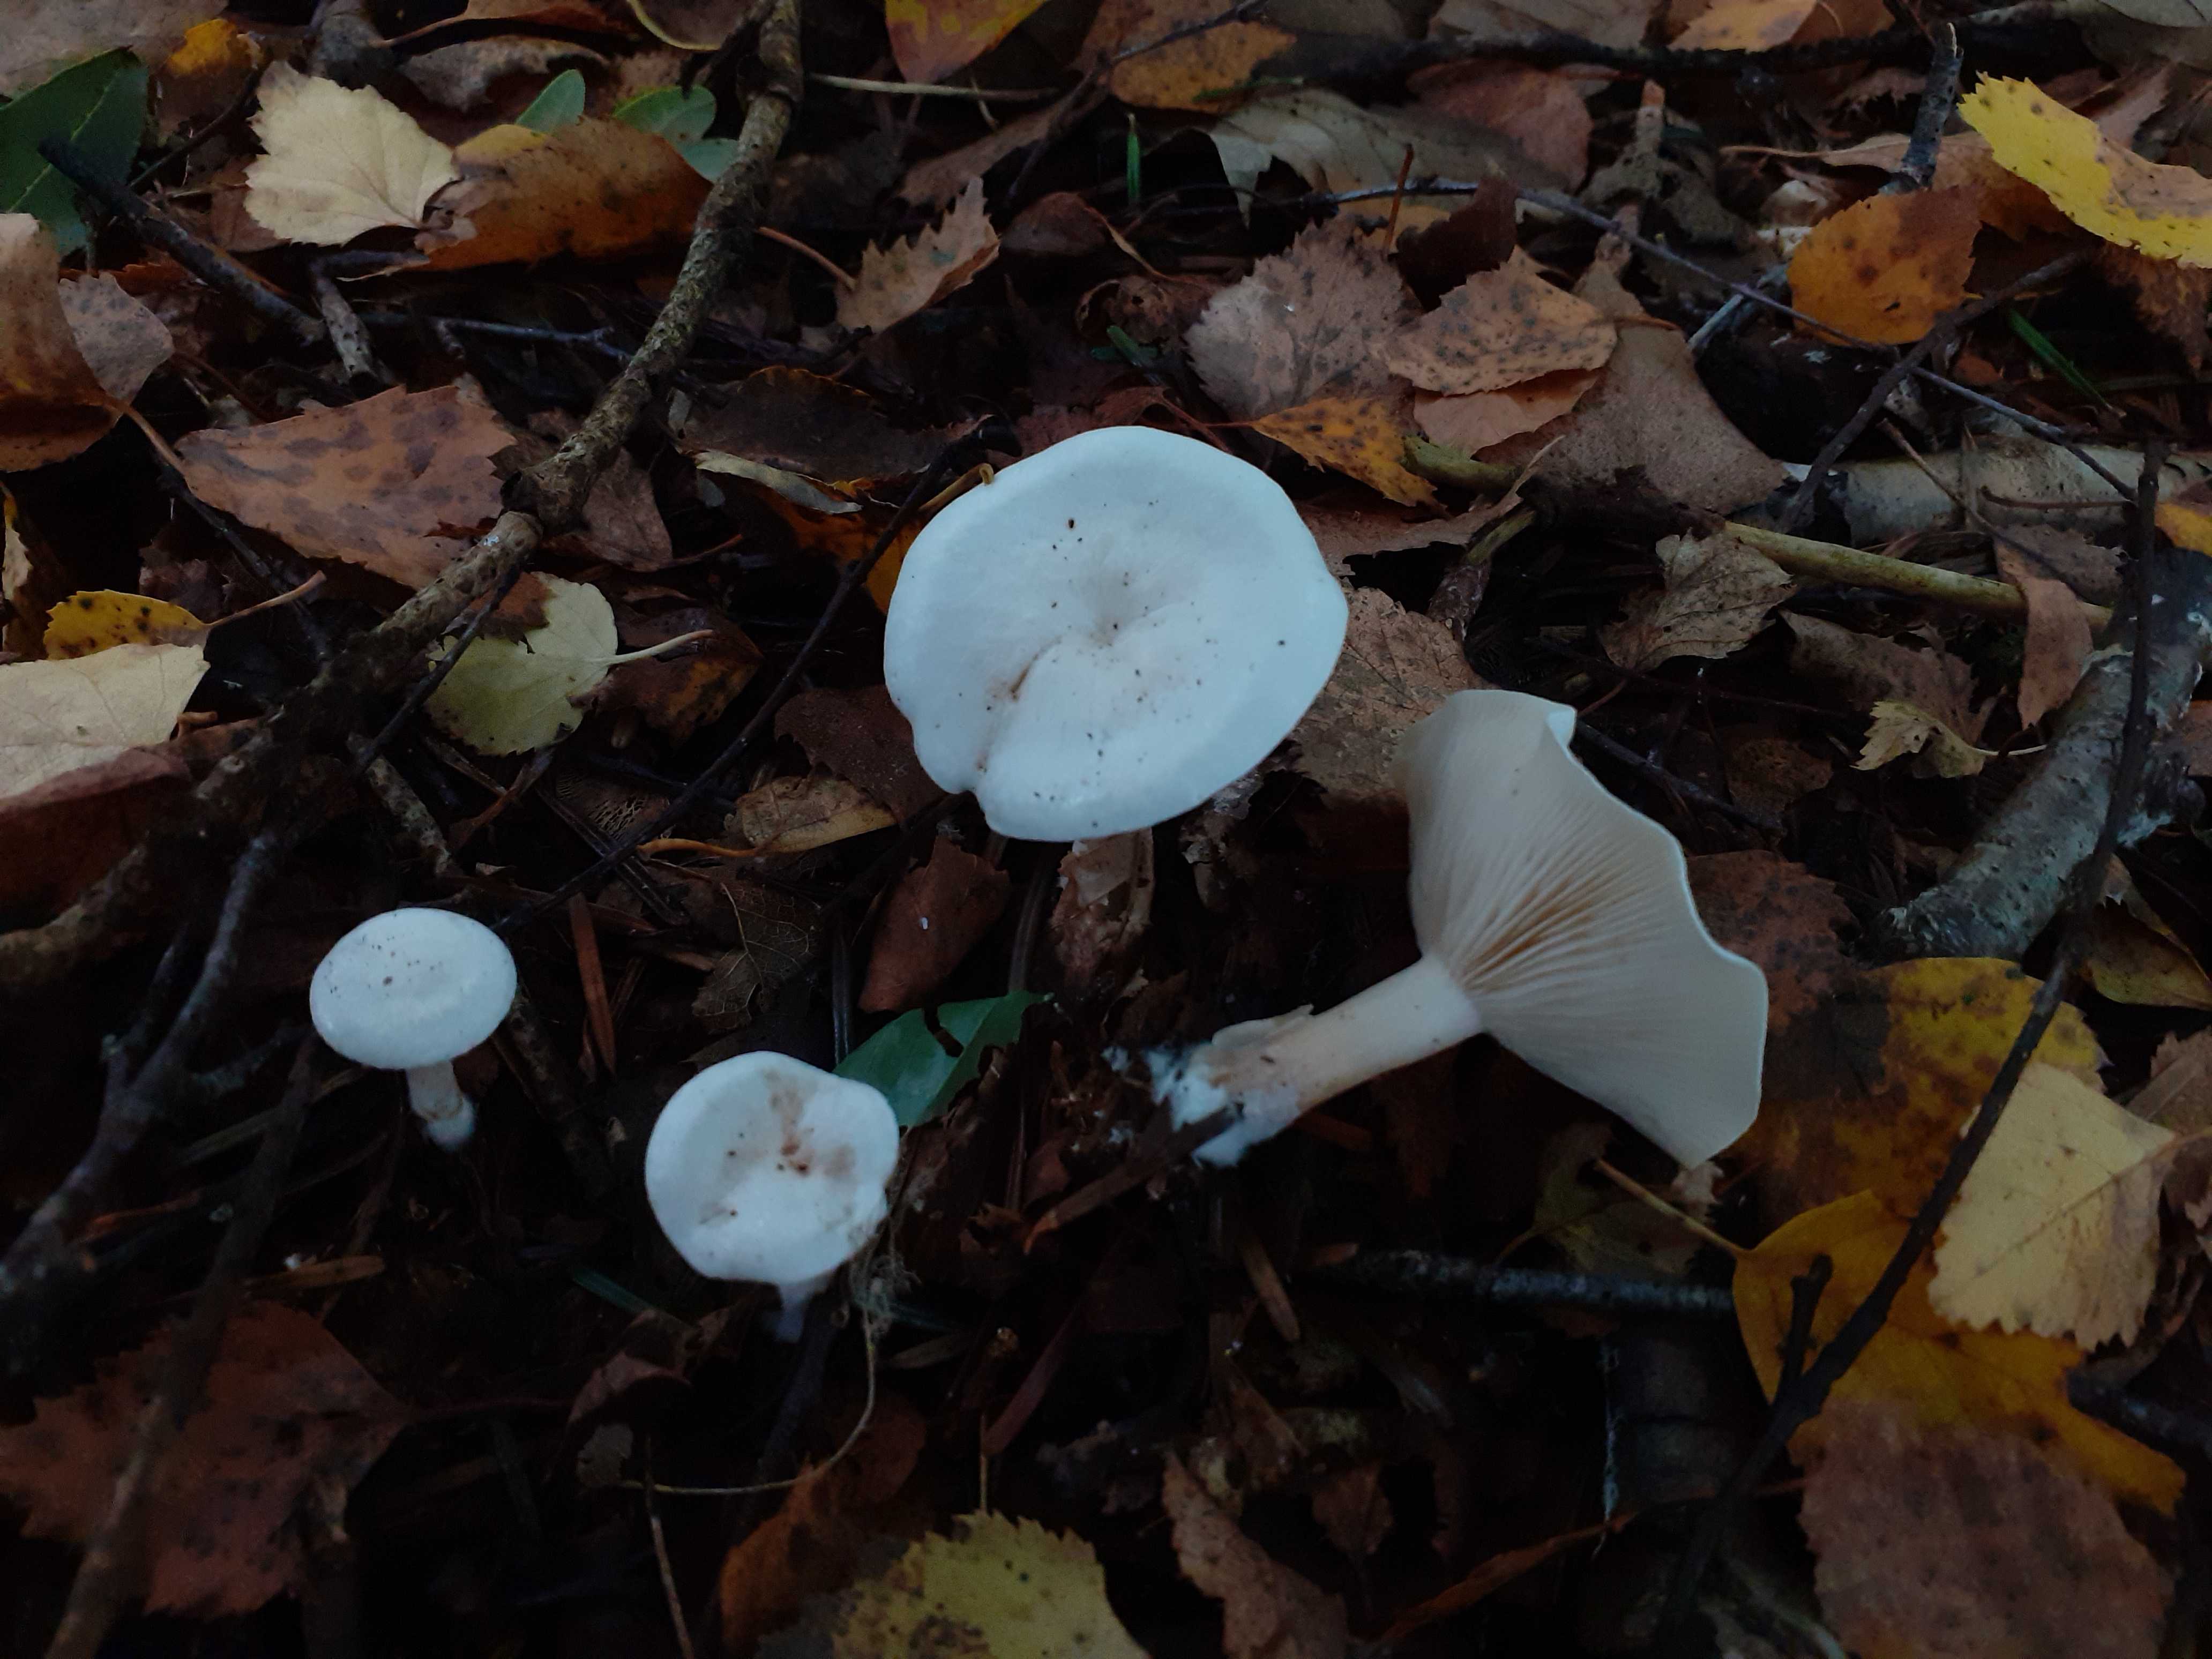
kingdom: Fungi
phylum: Basidiomycota
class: Agaricomycetes
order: Agaricales
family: Tricholomataceae
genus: Clitocybe
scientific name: Clitocybe phyllophila
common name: løv-tragthat
